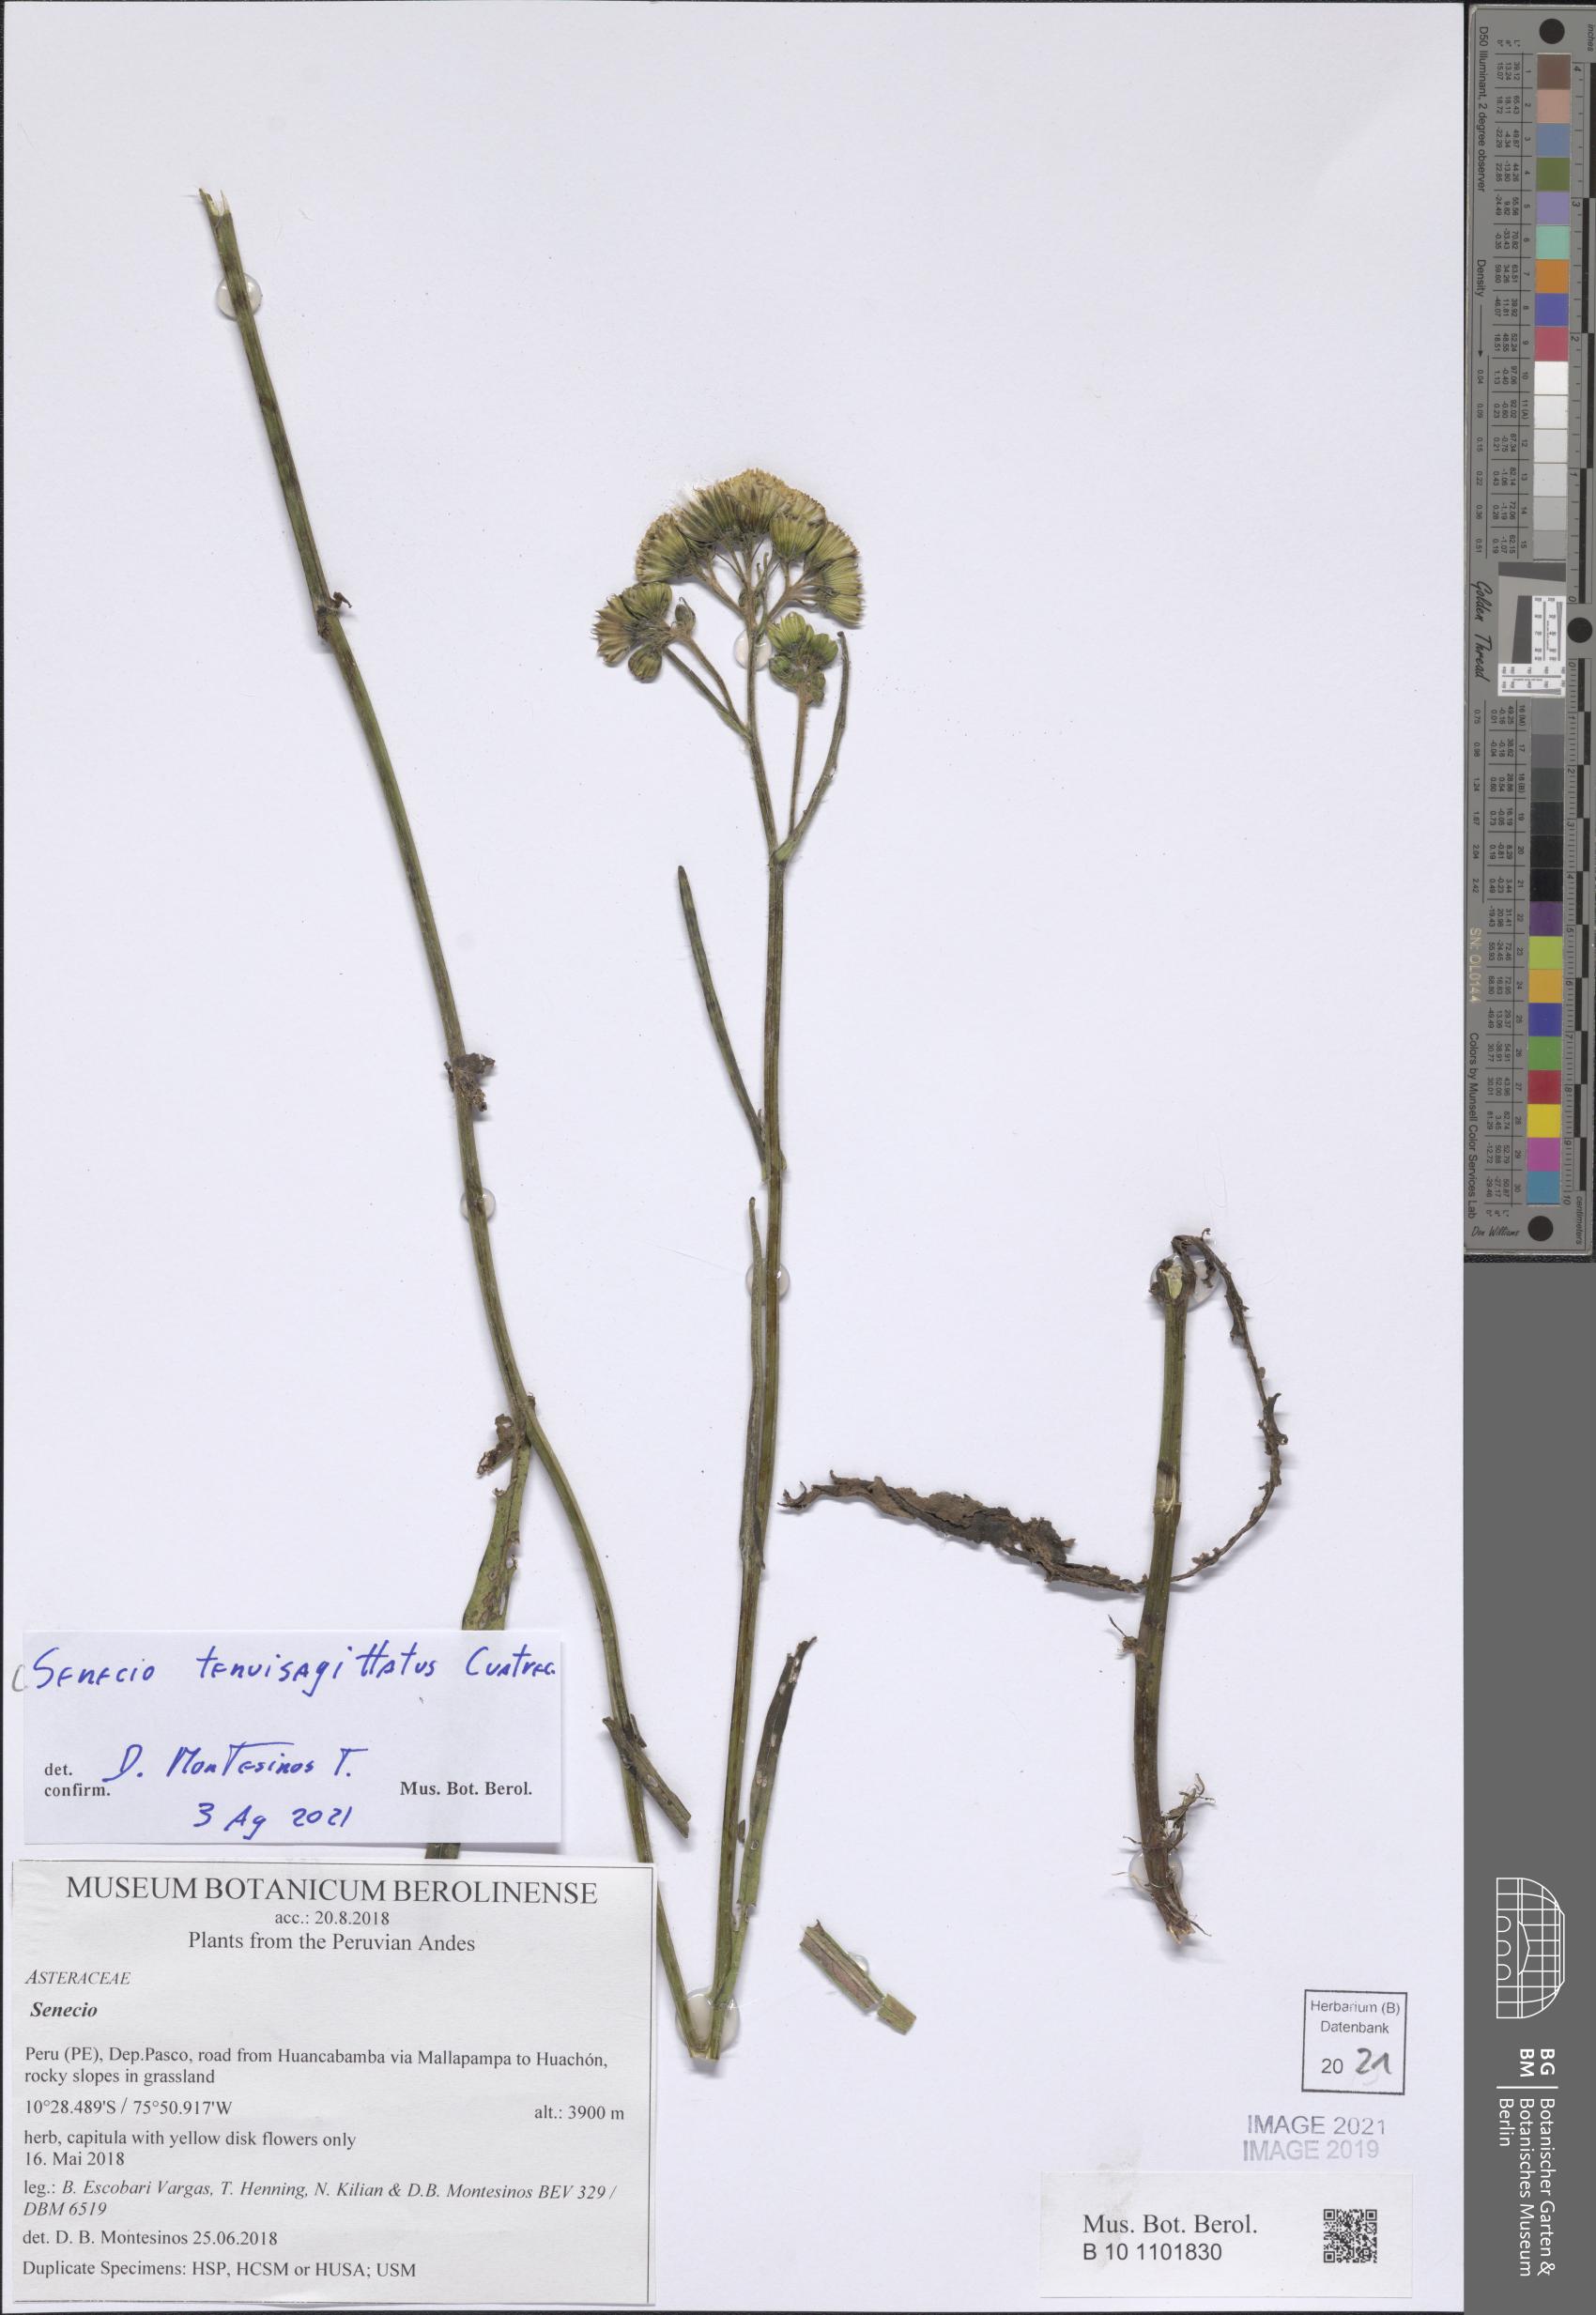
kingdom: Plantae
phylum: Tracheophyta
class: Magnoliopsida
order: Asterales
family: Asteraceae
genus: Senecio
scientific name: Senecio tenuisagittatus
